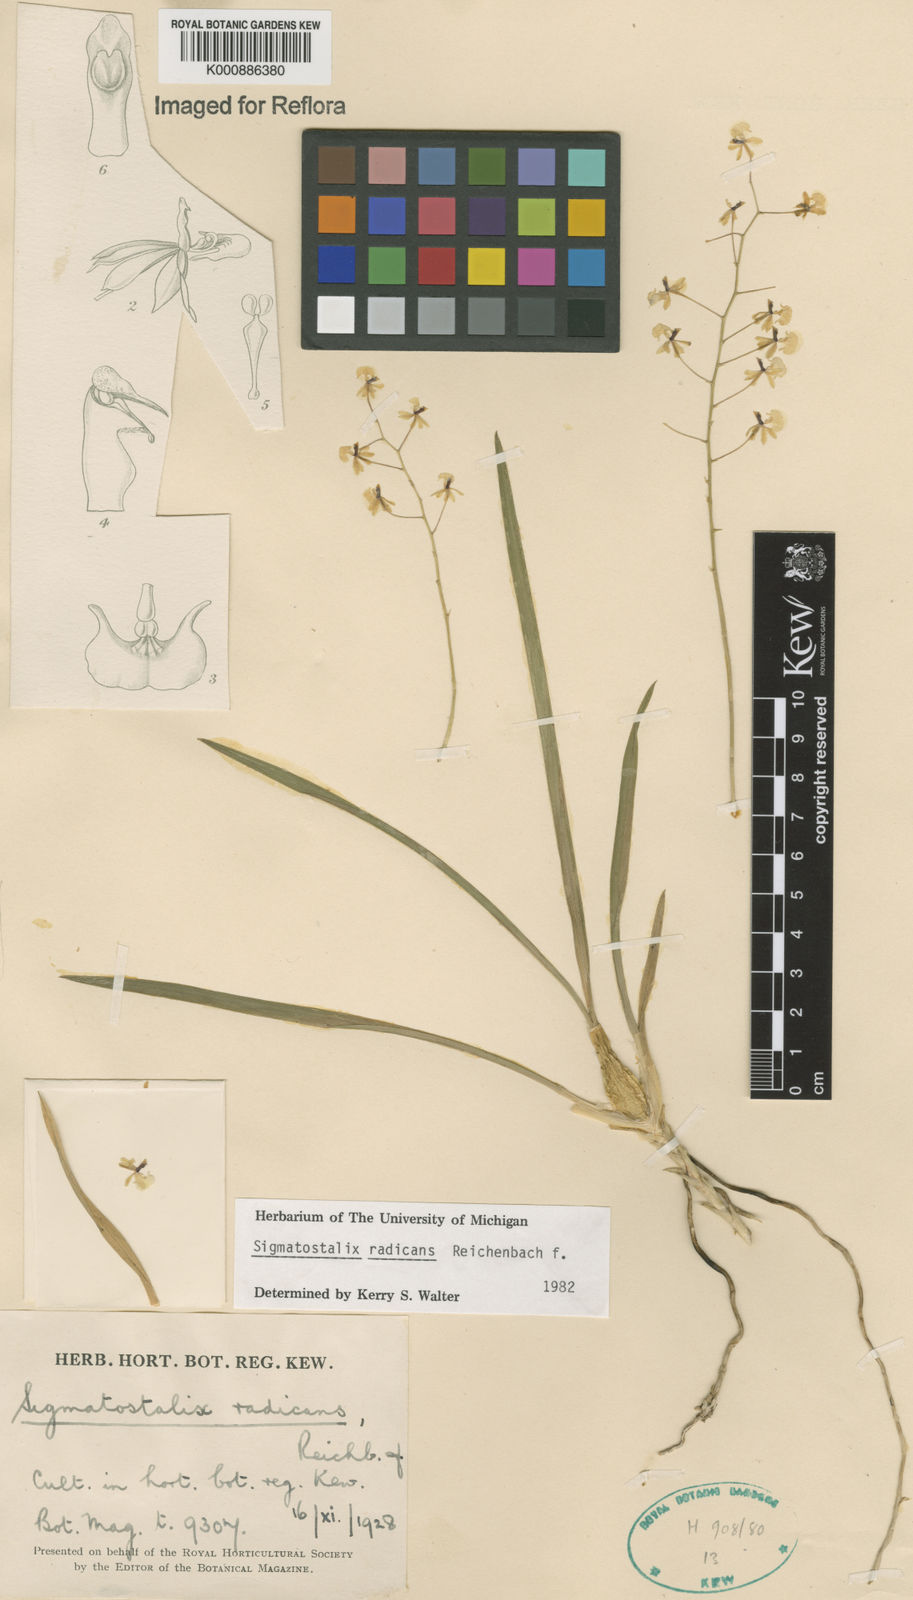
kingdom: Plantae
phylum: Tracheophyta
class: Liliopsida
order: Asparagales
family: Orchidaceae
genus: Gomesa
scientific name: Gomesa radicans
